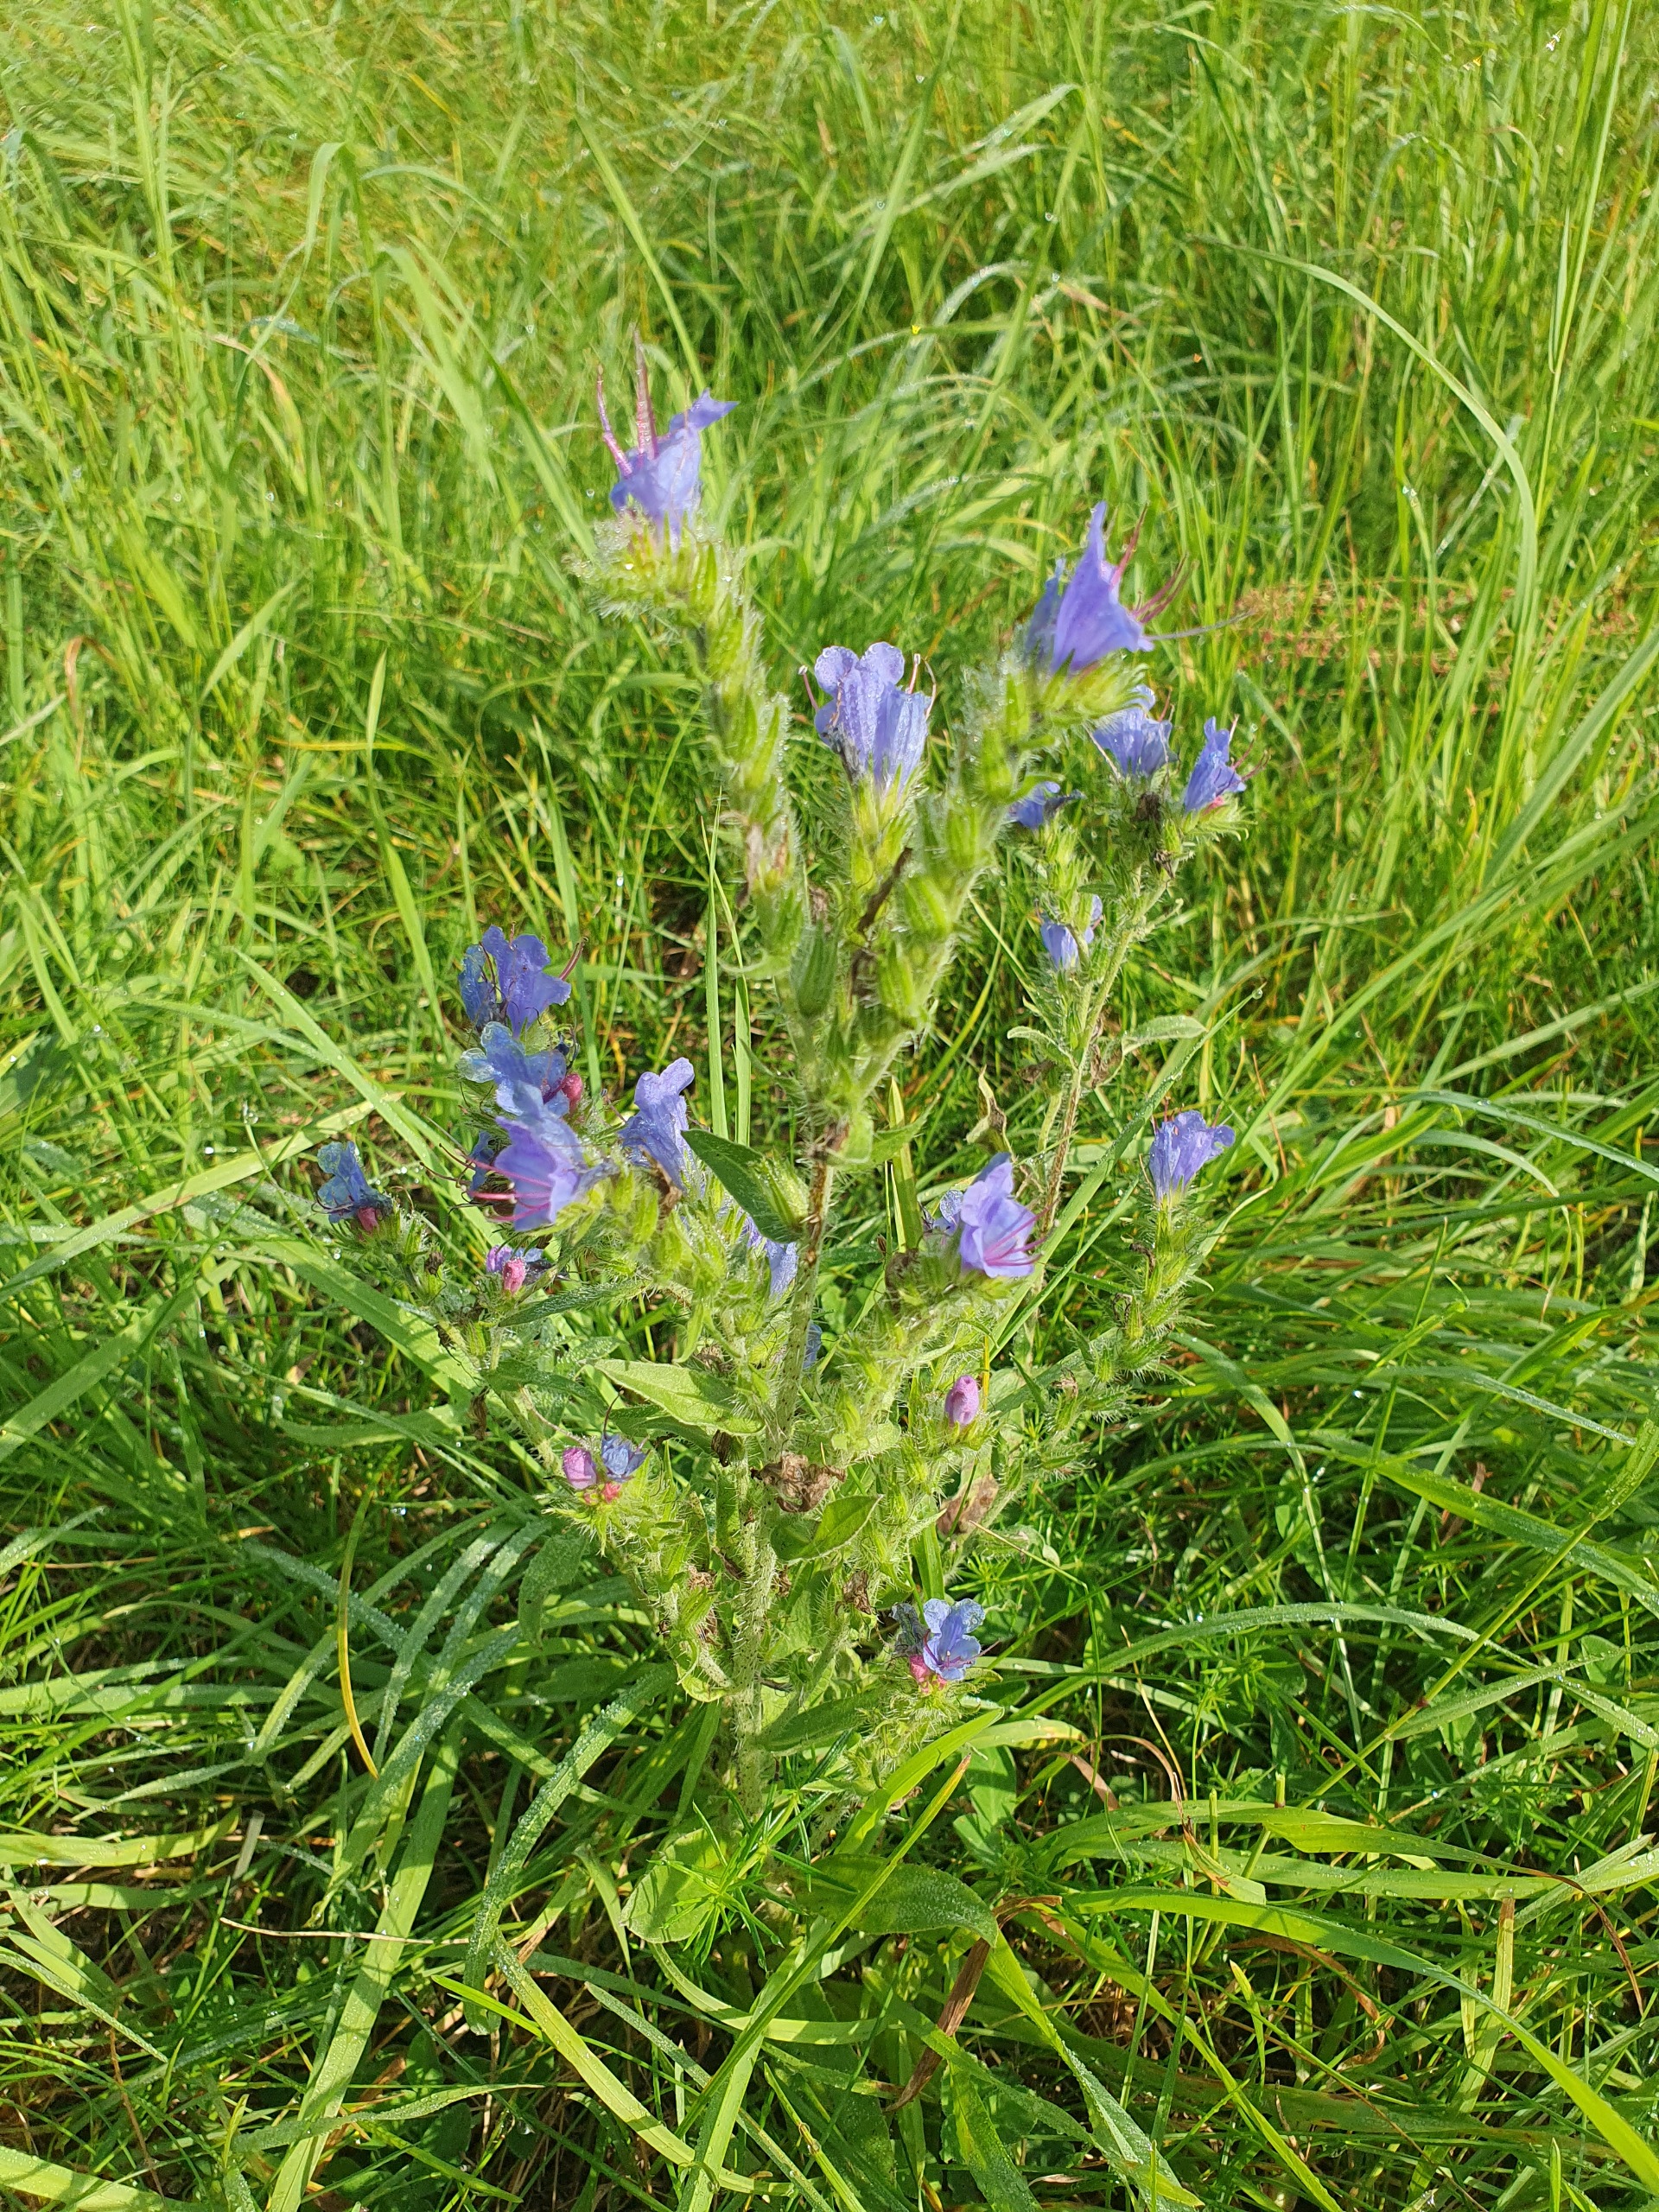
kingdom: Plantae
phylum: Tracheophyta
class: Magnoliopsida
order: Boraginales
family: Boraginaceae
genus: Echium
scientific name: Echium vulgare
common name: Slangehoved
